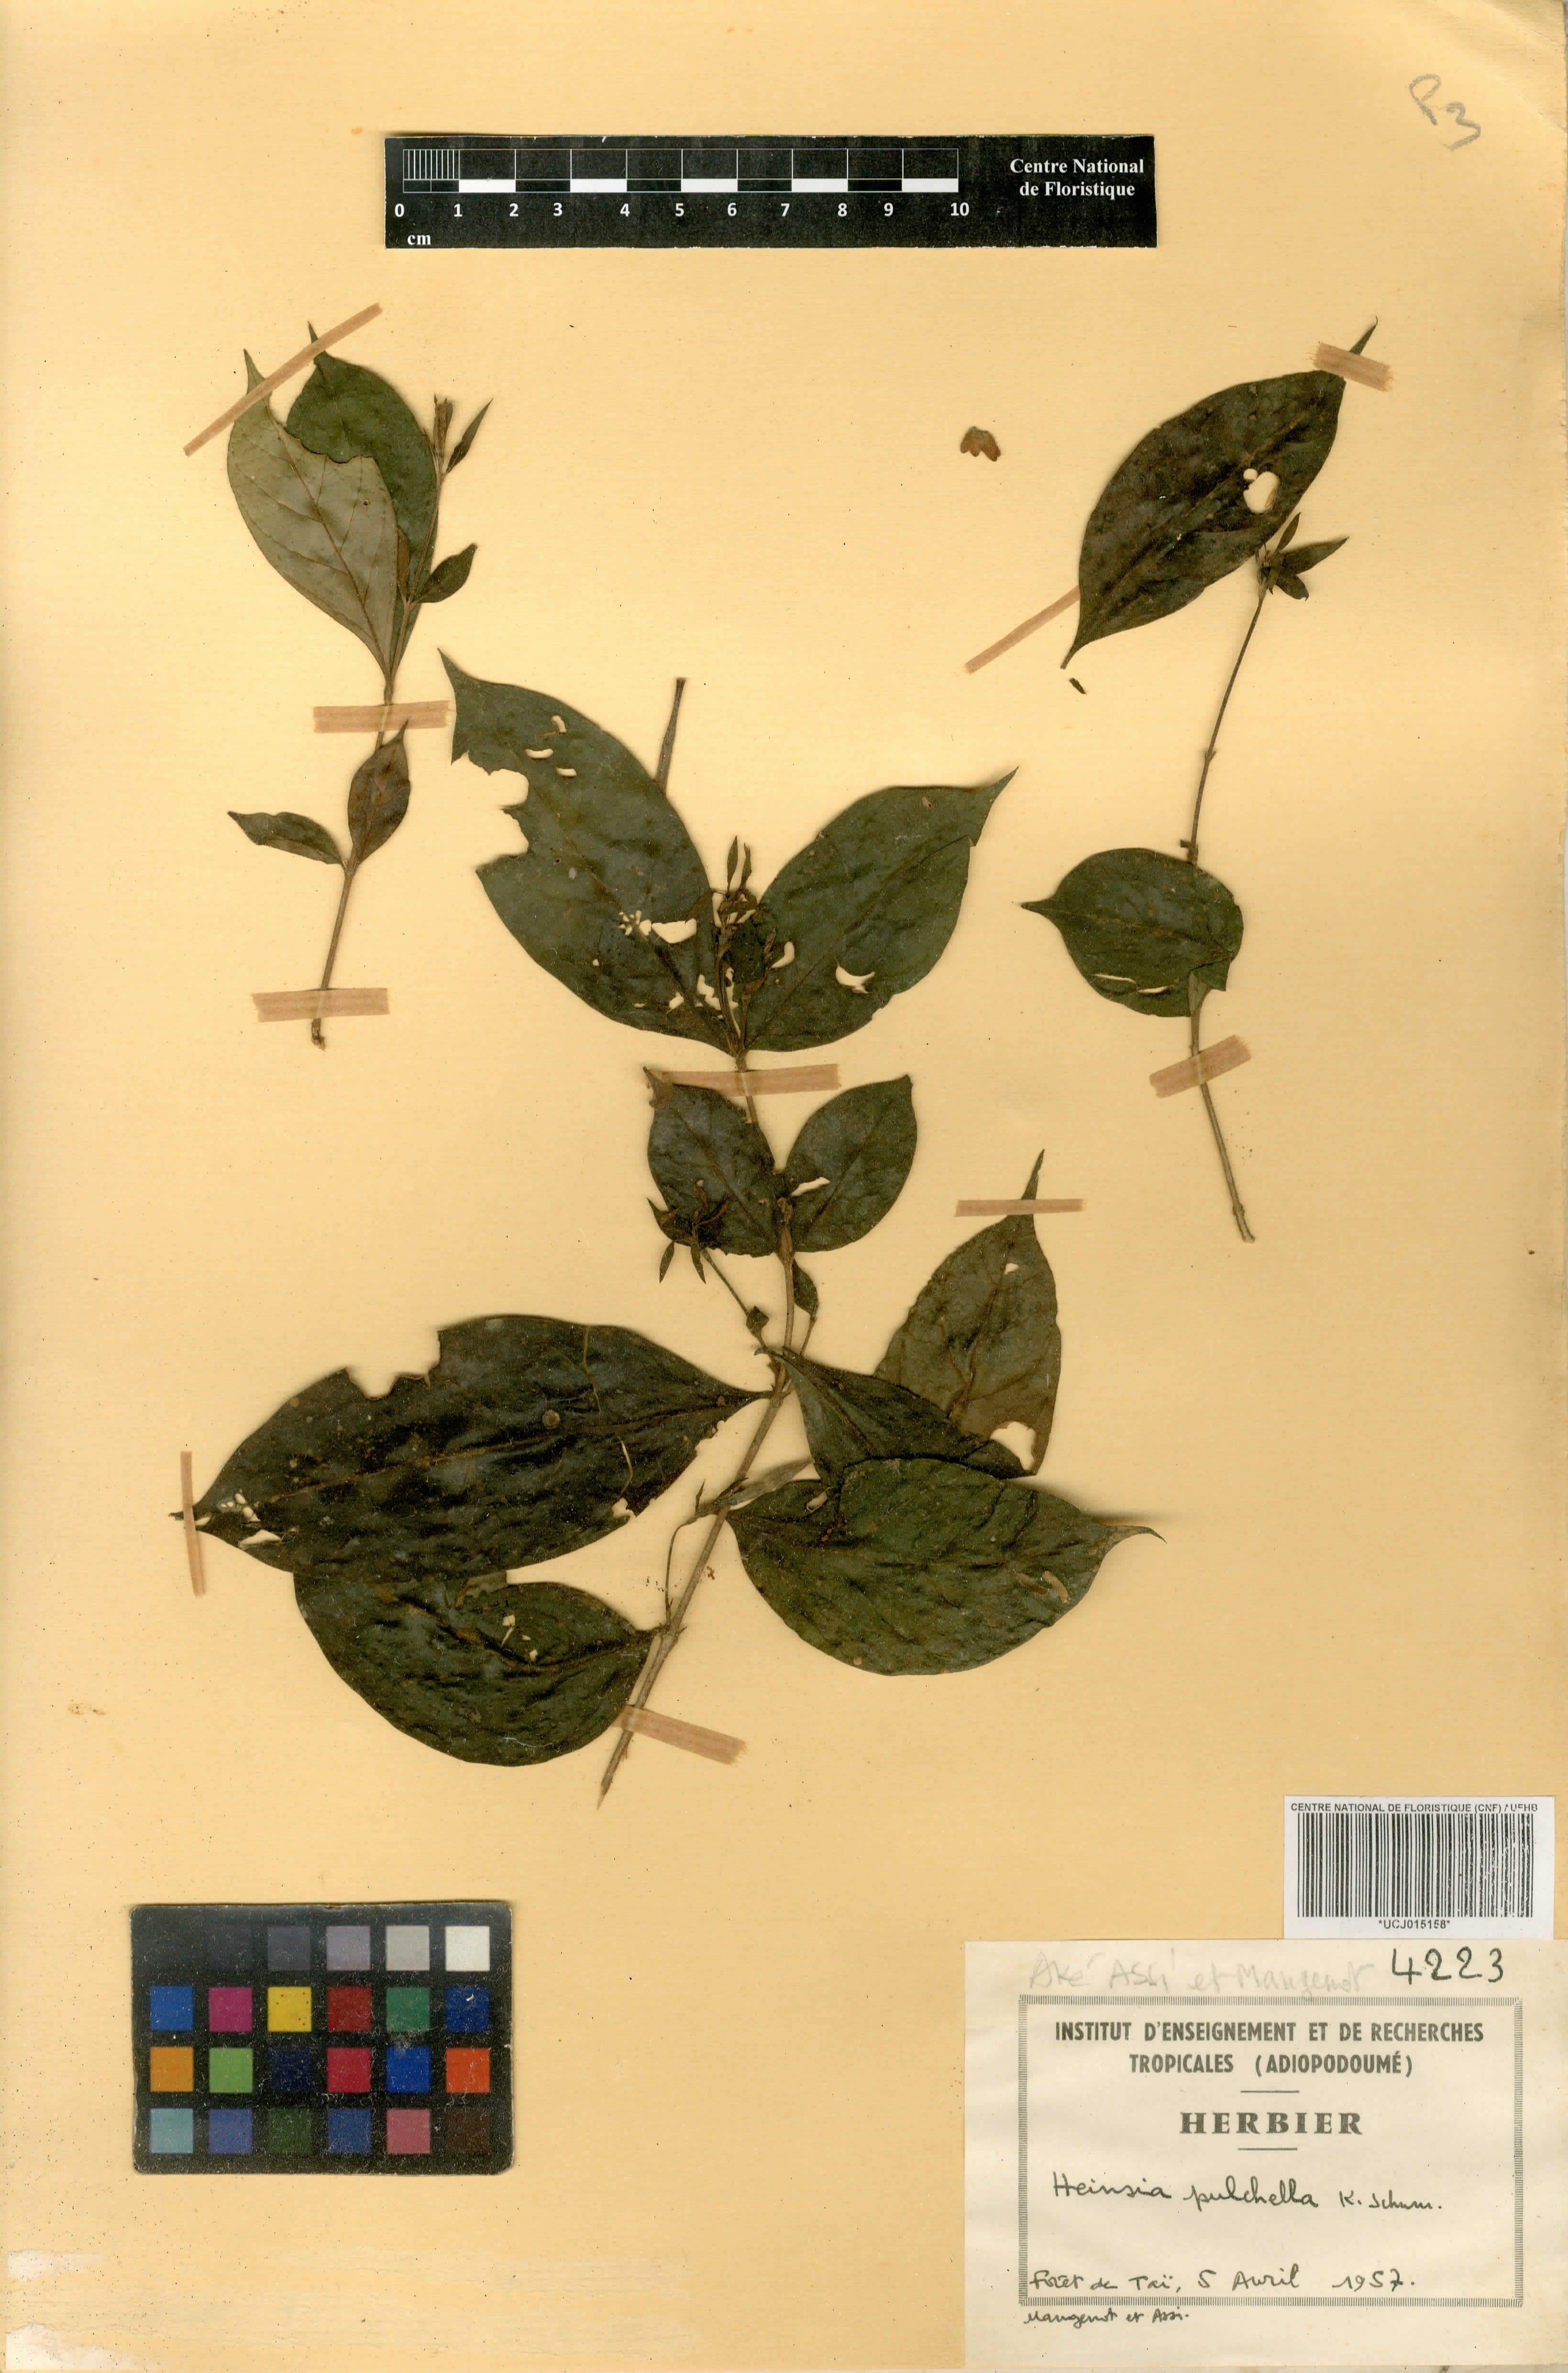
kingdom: Plantae
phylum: Tracheophyta
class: Magnoliopsida
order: Gentianales
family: Rubiaceae
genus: Heinsia
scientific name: Heinsia crinita
